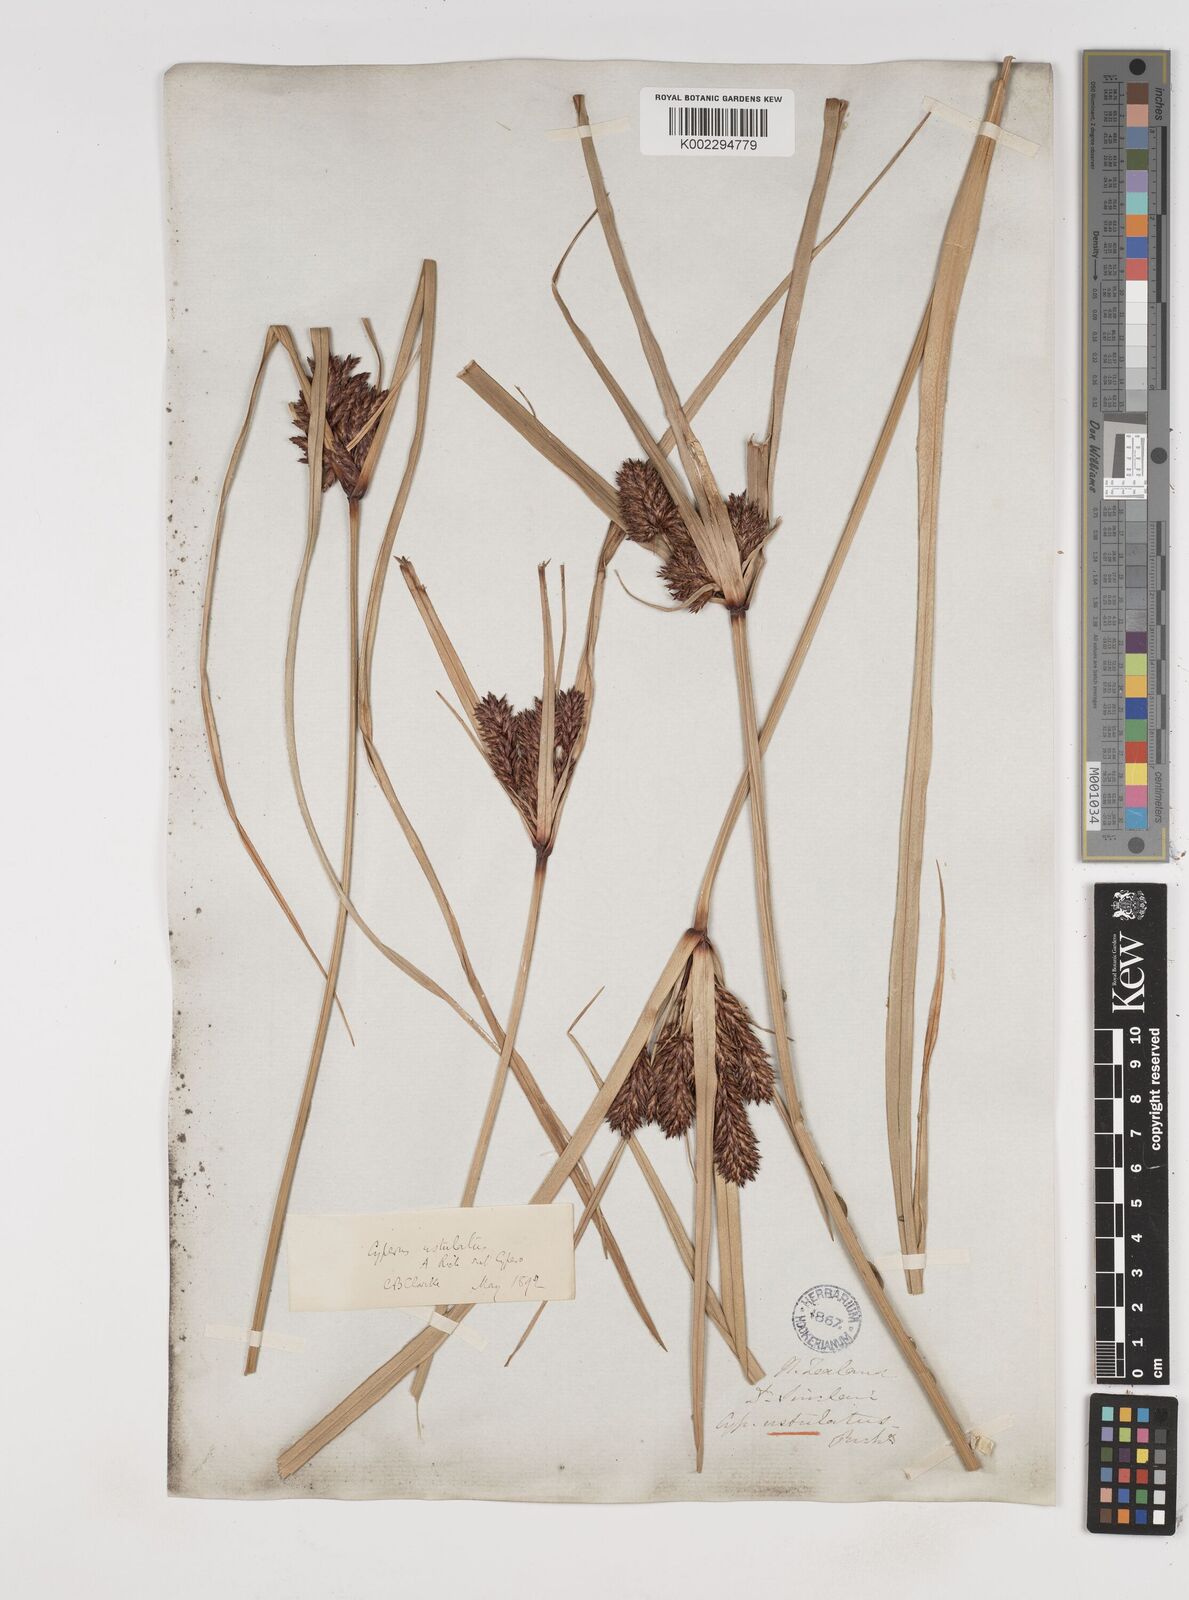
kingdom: Plantae
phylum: Tracheophyta
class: Liliopsida
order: Poales
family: Cyperaceae
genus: Cyperus
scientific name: Cyperus ustulatus
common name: Giant umbrella-sedge
